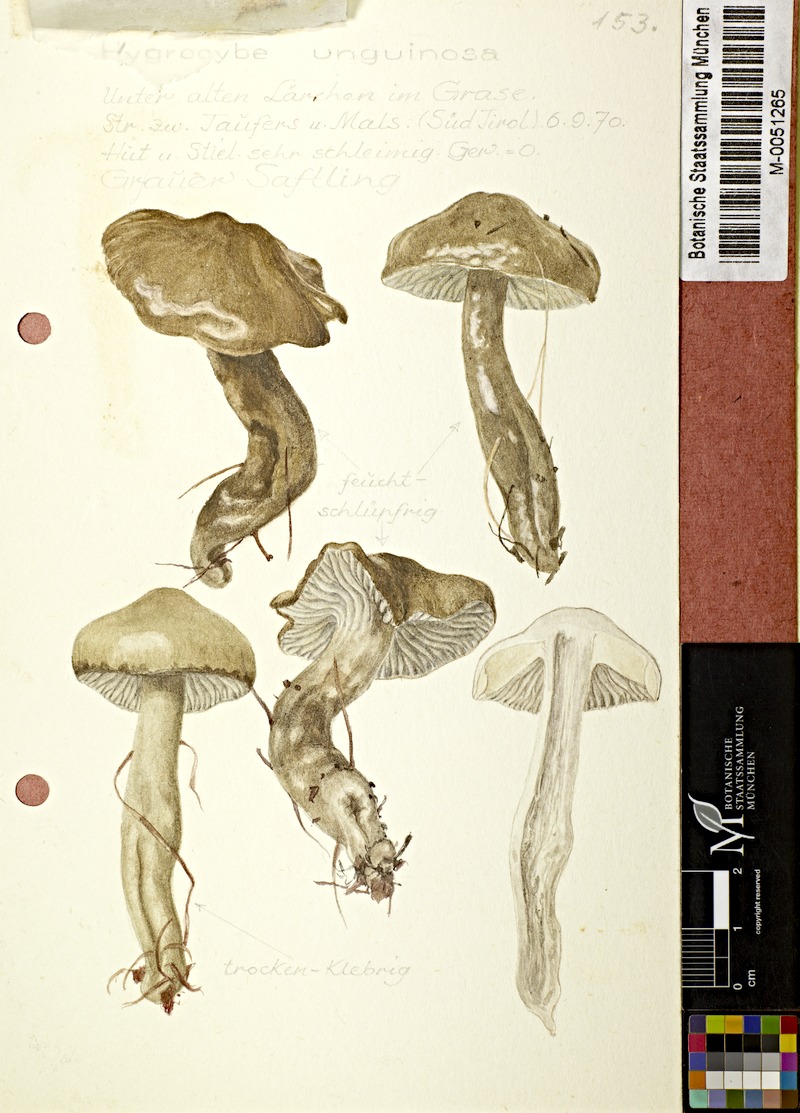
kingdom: Fungi
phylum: Basidiomycota
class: Agaricomycetes
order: Agaricales
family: Hygrophoraceae
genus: Gliophorus
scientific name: Gliophorus irrigatus
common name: Slimy waxcap
